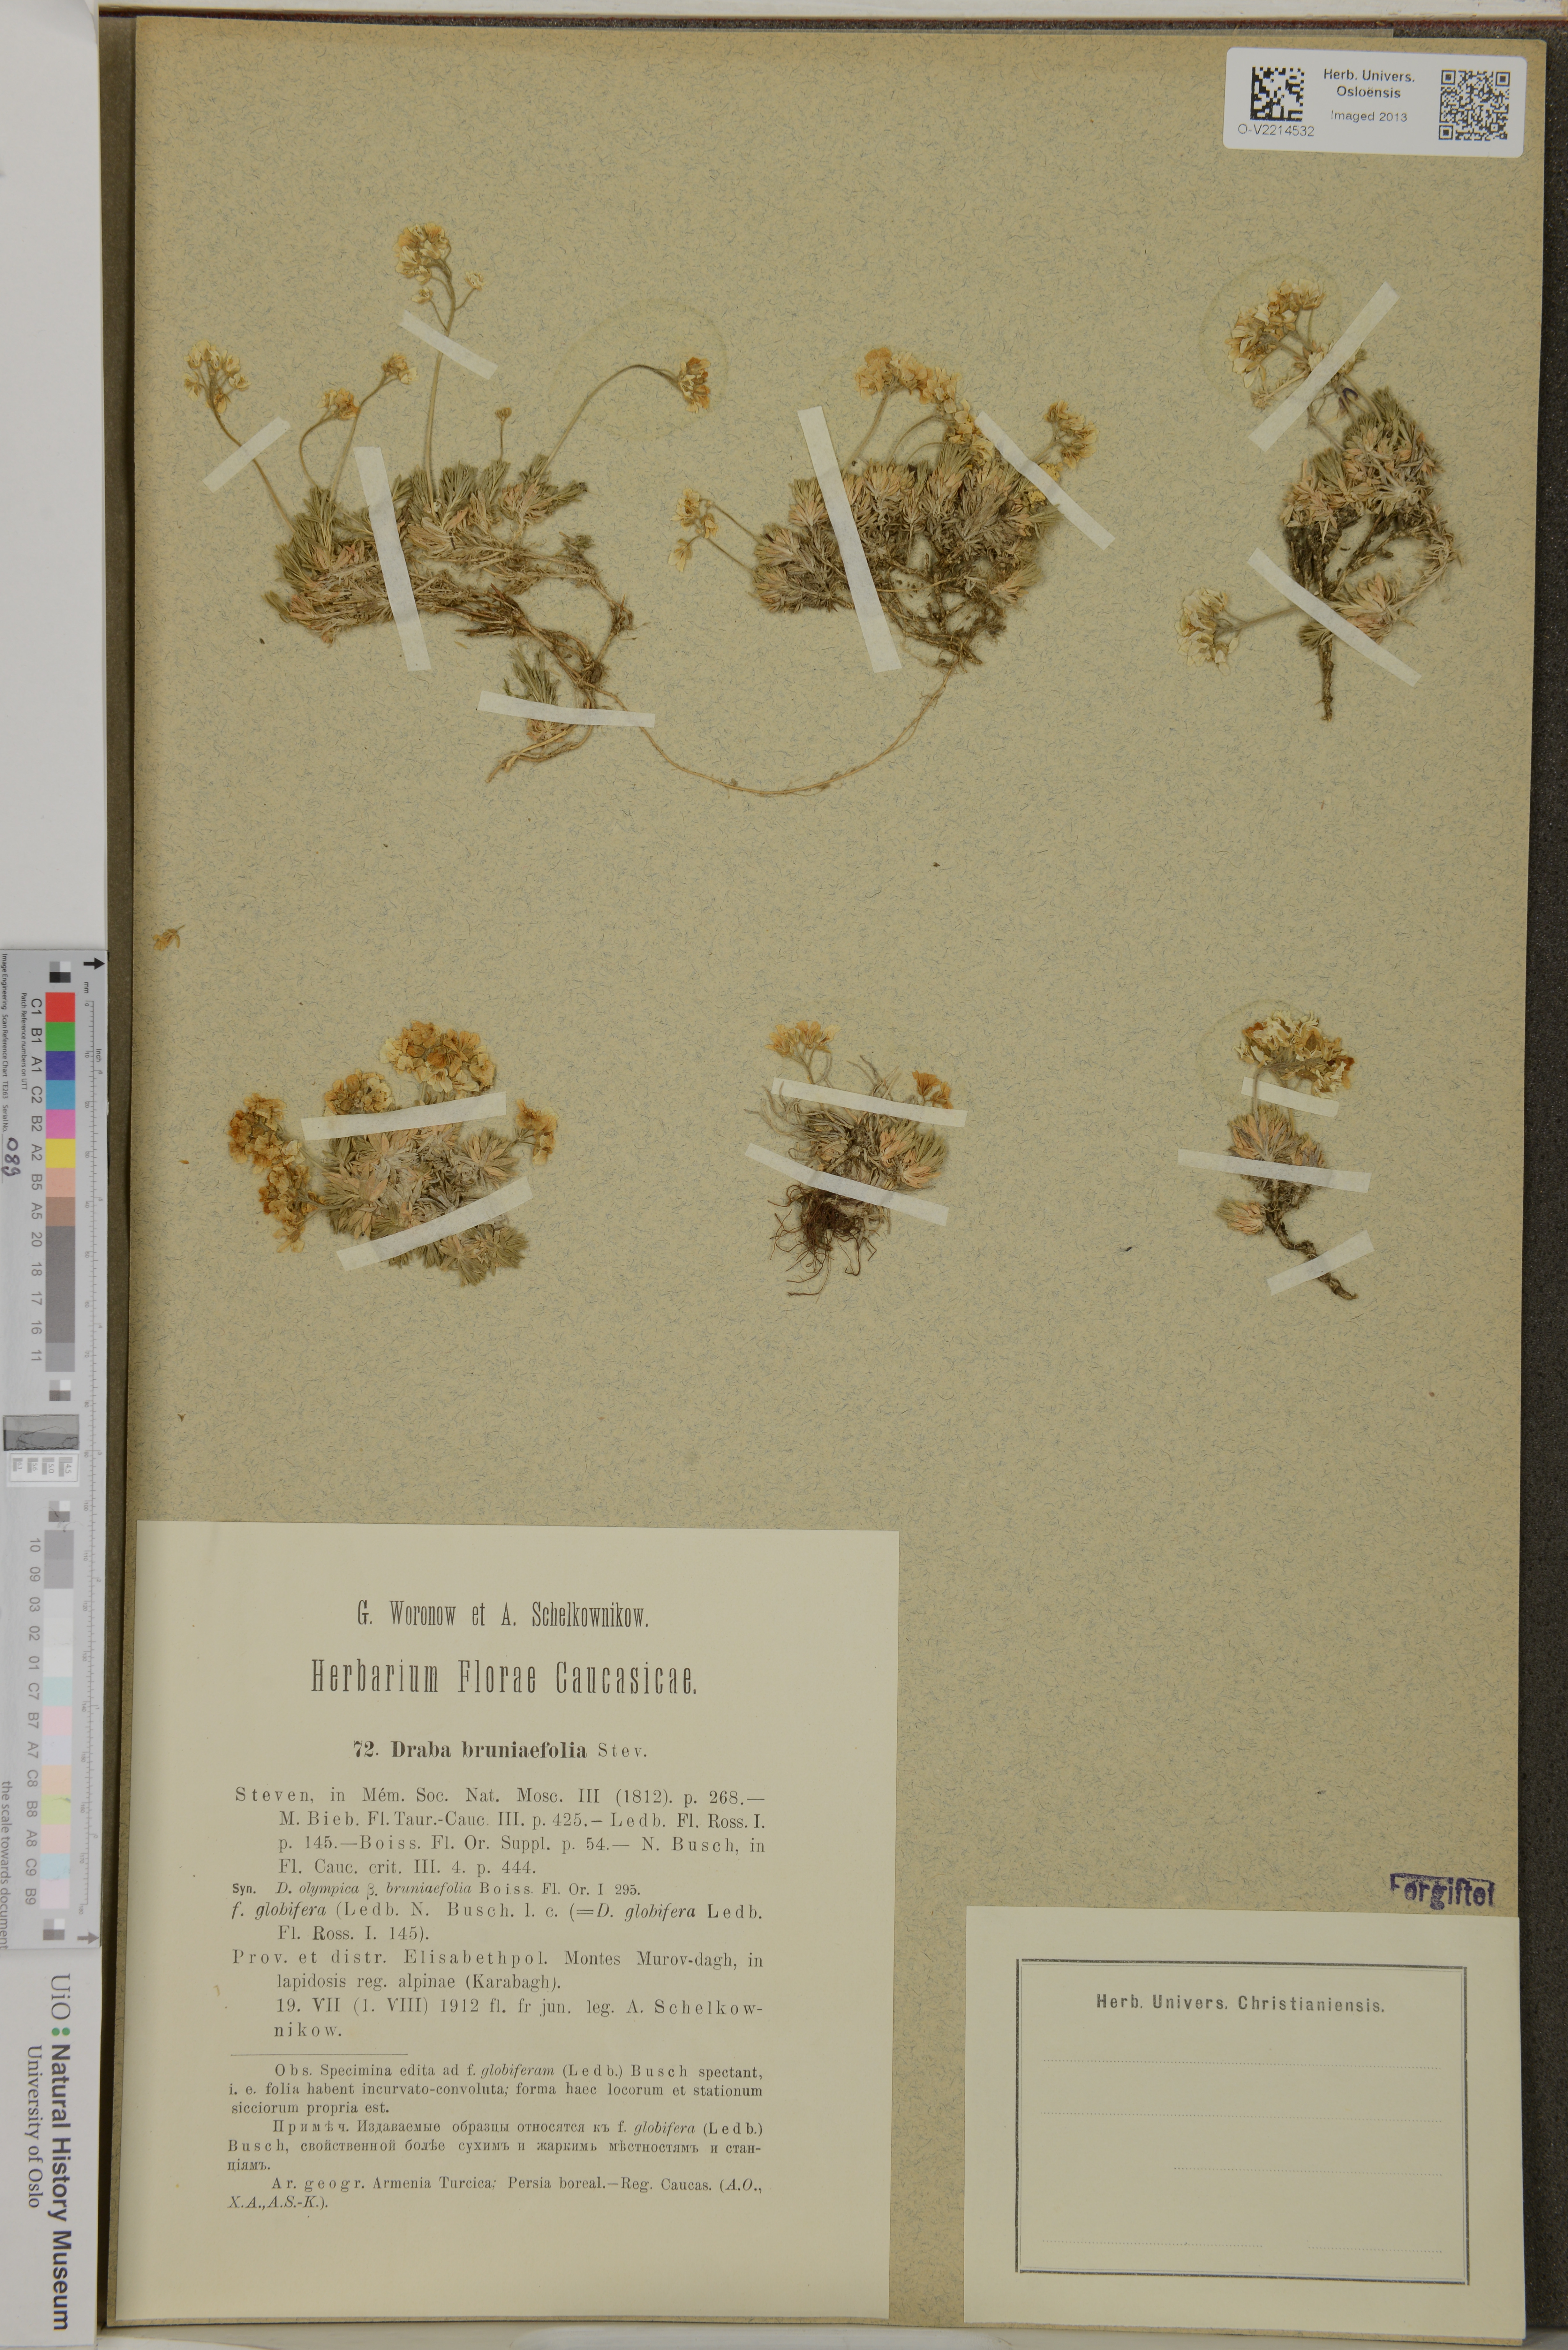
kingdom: Plantae
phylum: Tracheophyta
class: Magnoliopsida
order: Brassicales
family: Brassicaceae
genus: Draba
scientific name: Draba bruniifolia
